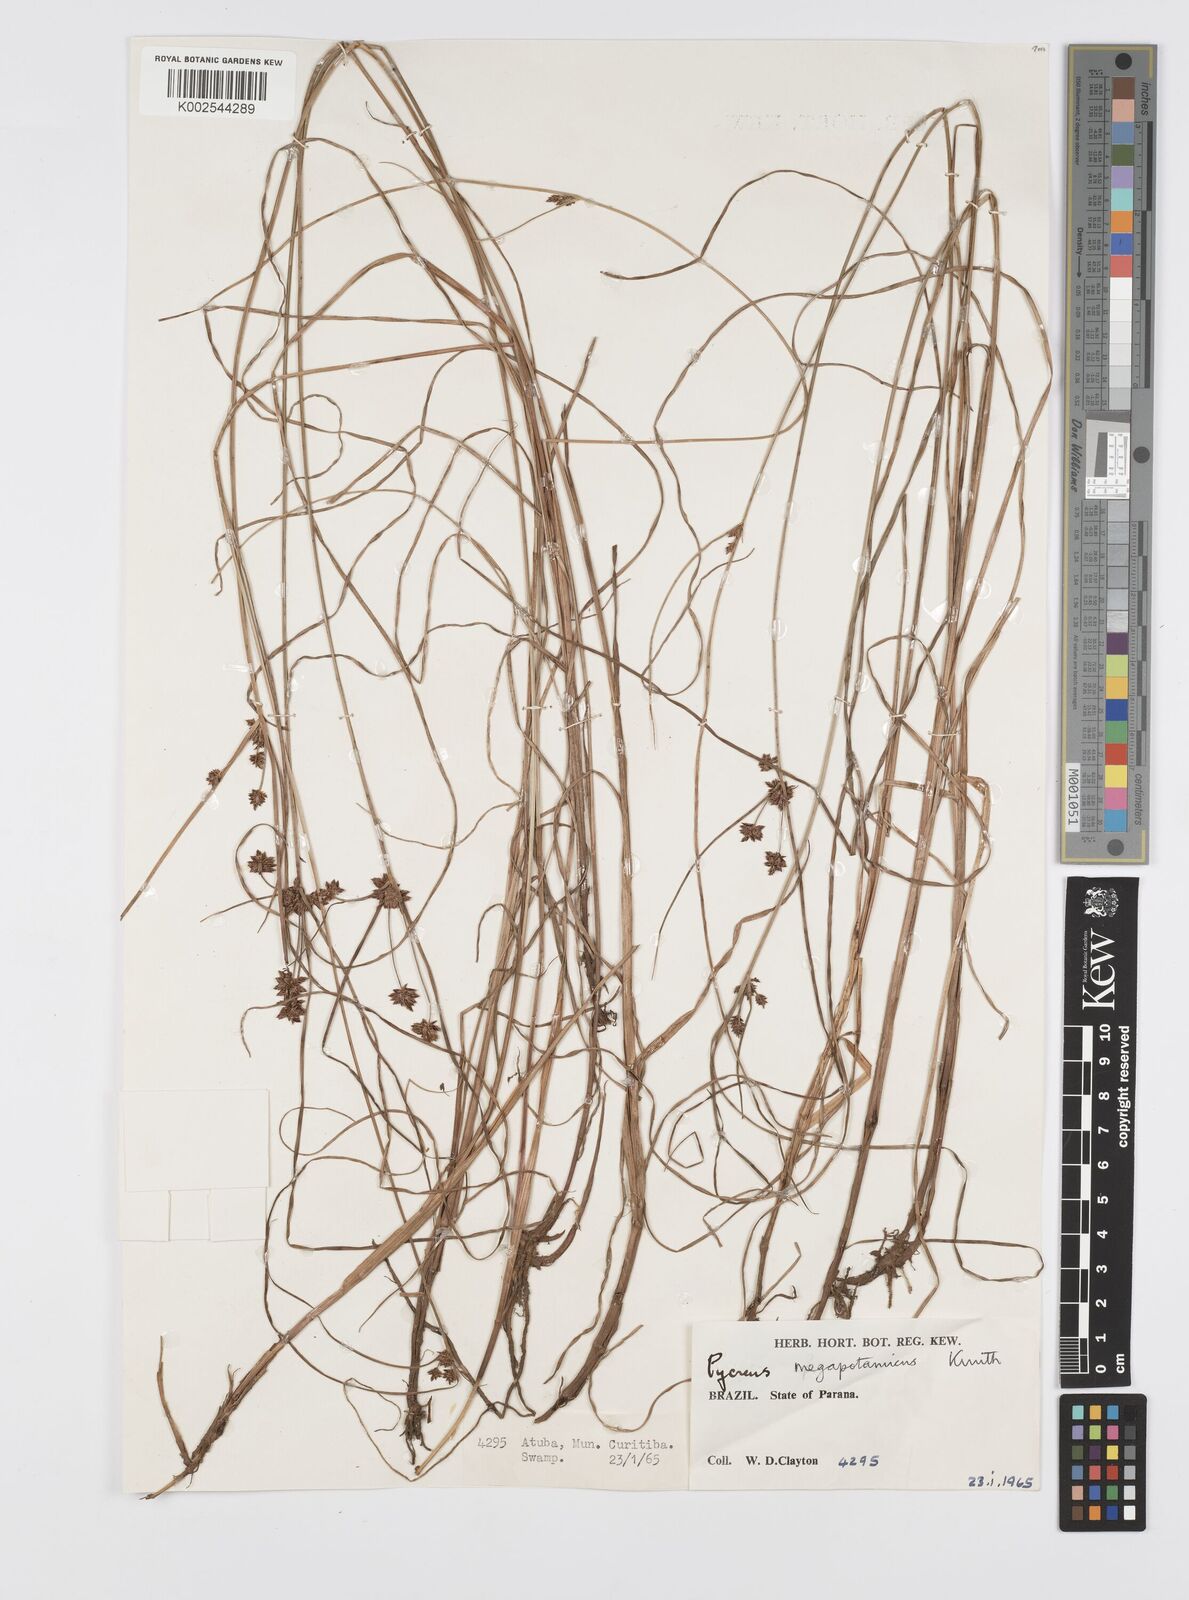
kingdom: Plantae
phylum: Tracheophyta
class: Liliopsida
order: Poales
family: Cyperaceae
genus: Cyperus
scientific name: Cyperus megapotamicus
